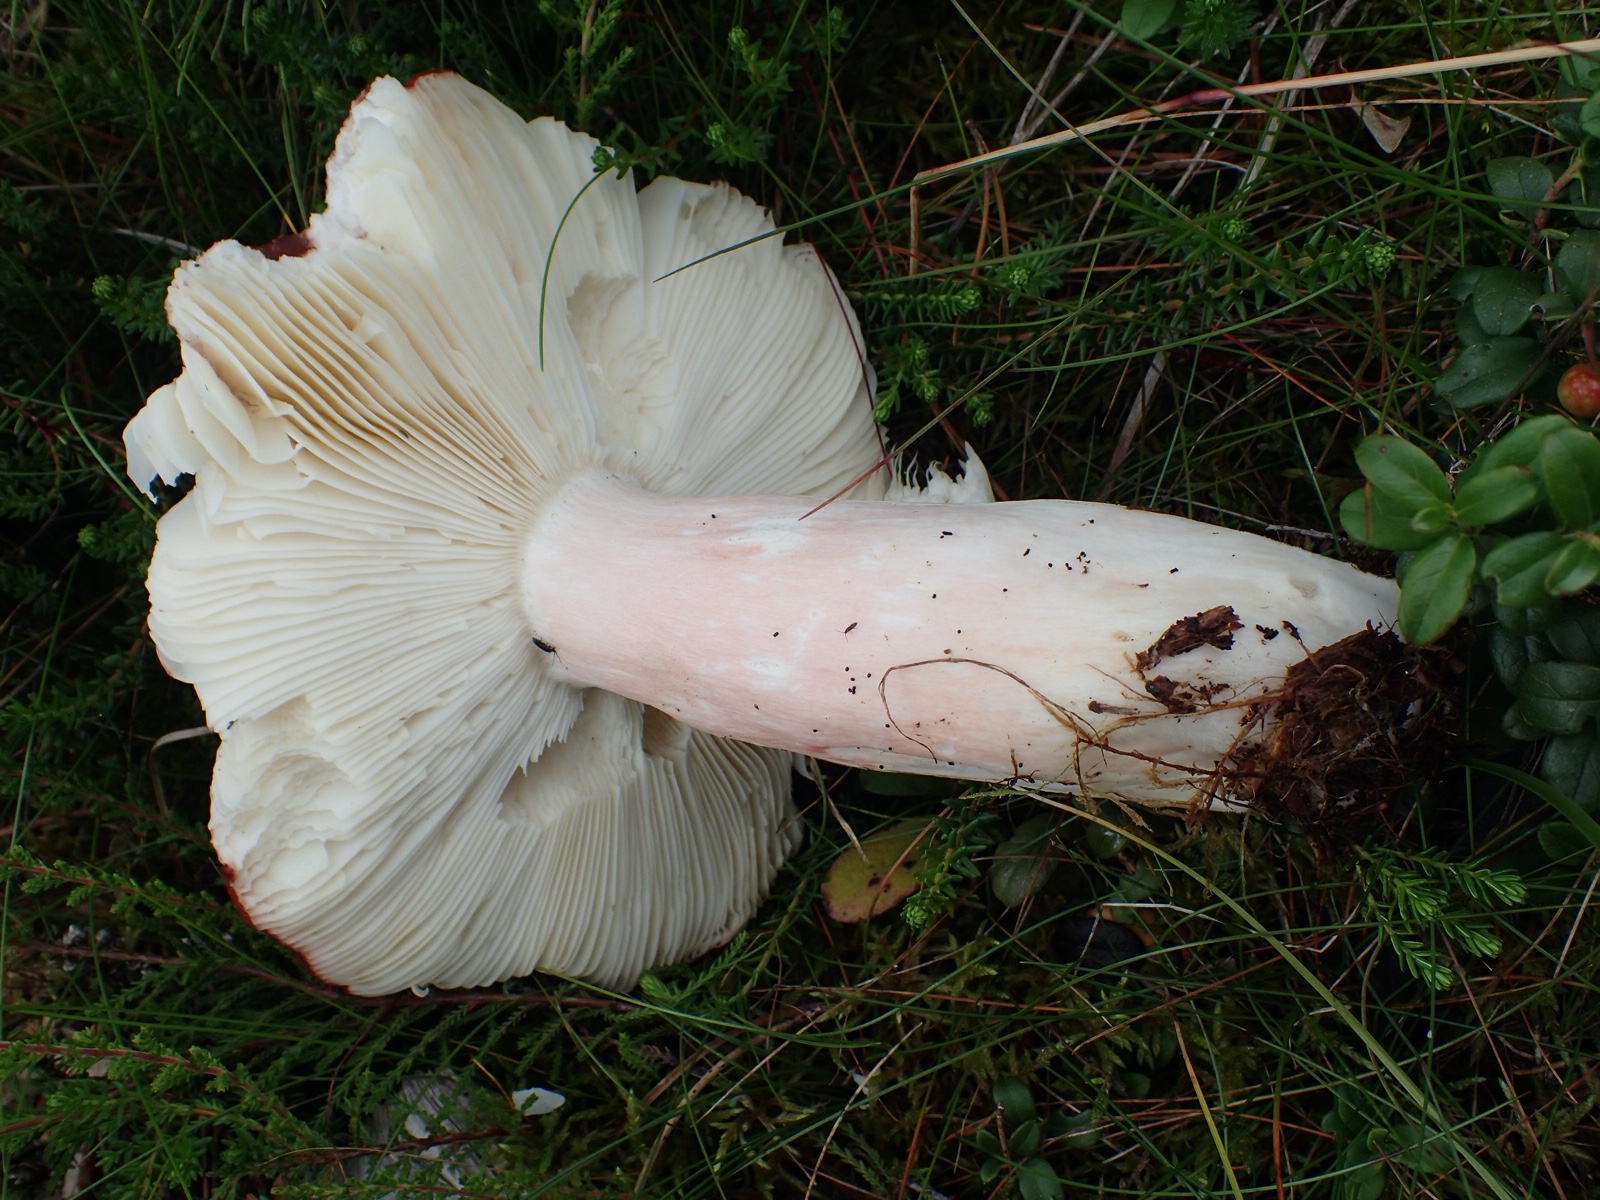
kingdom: Fungi
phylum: Basidiomycota
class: Agaricomycetes
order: Russulales
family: Russulaceae
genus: Russula
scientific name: Russula paludosa
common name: prægtig skørhat
